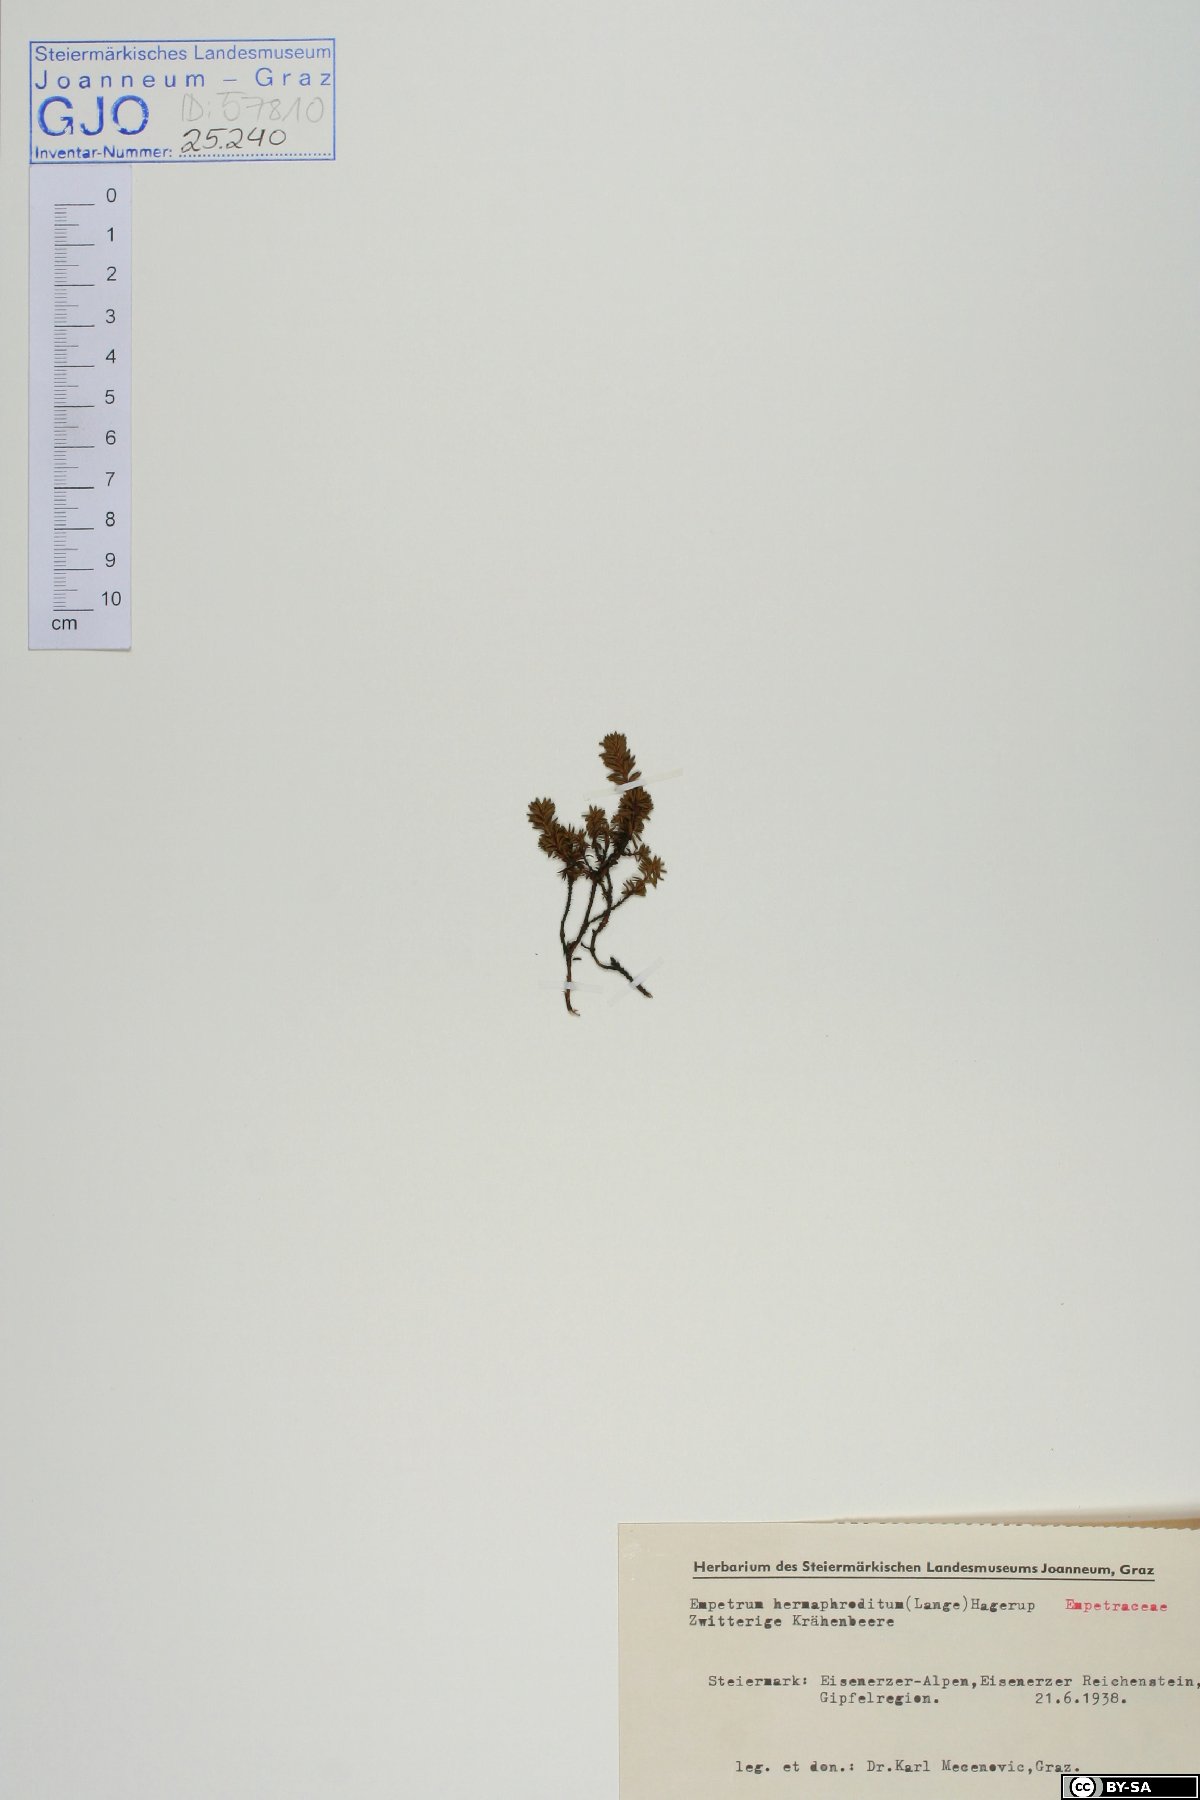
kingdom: Plantae
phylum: Tracheophyta
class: Magnoliopsida
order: Ericales
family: Ericaceae
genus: Empetrum
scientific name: Empetrum nigrum
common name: Black crowberry
